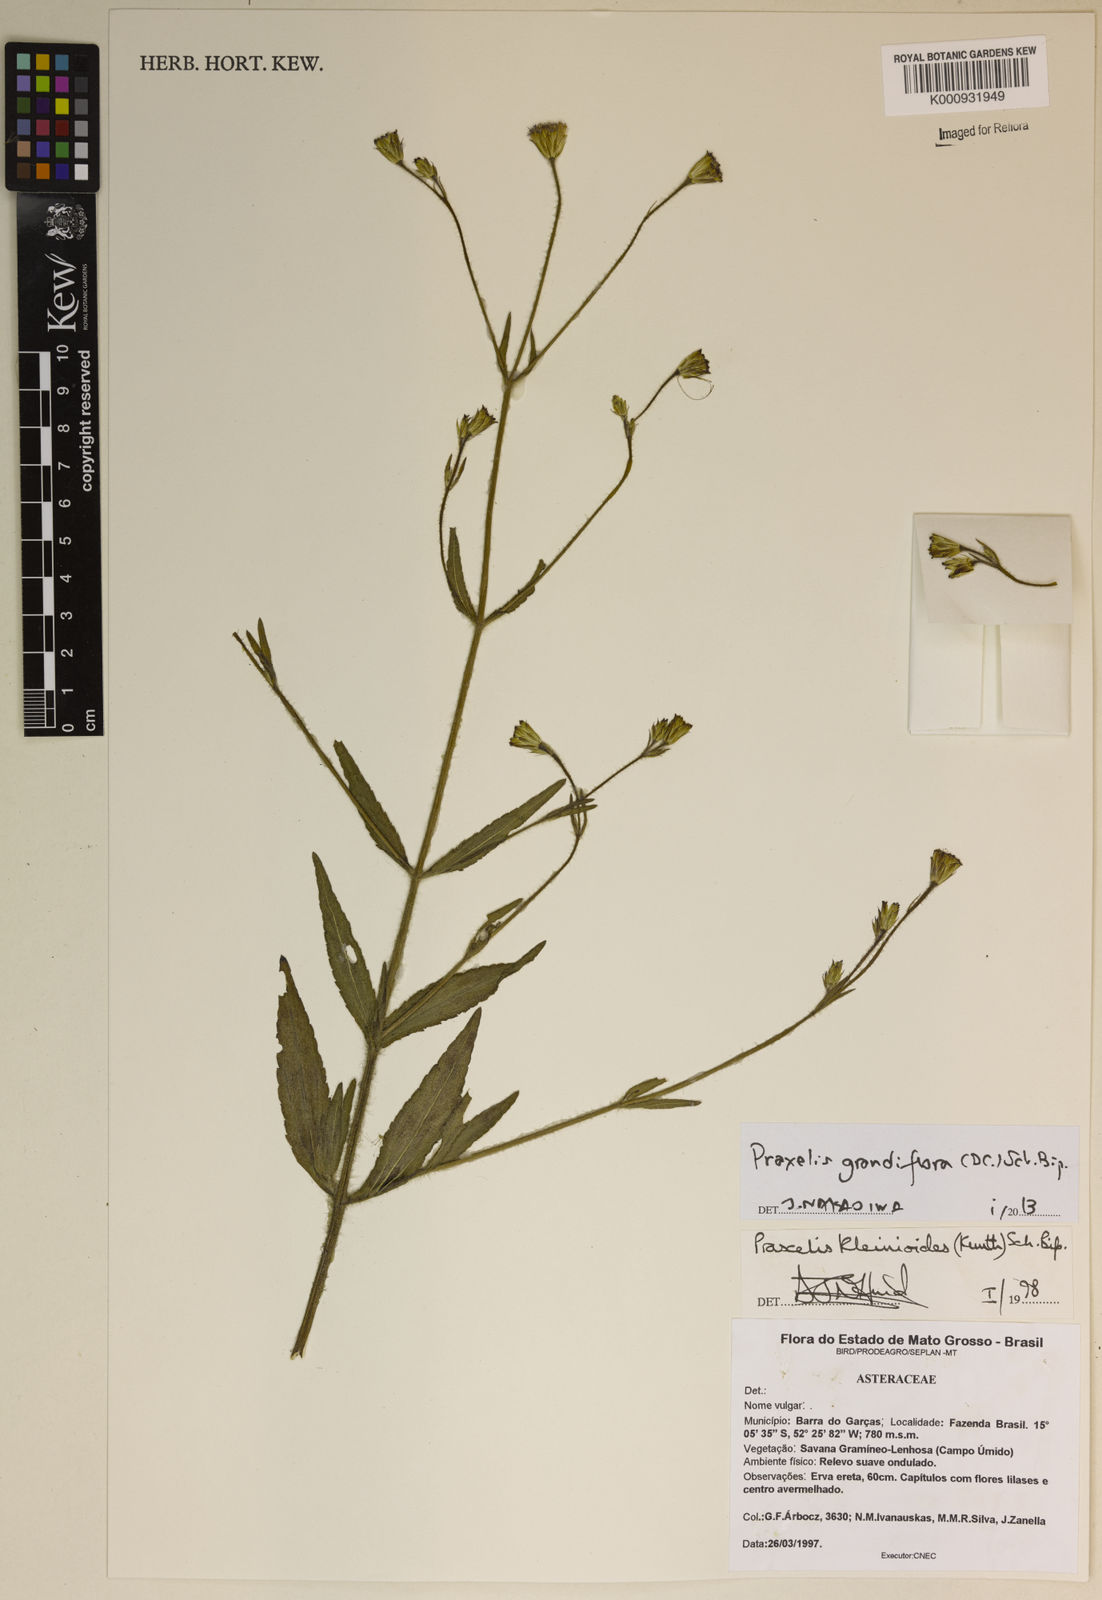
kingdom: Plantae
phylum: Tracheophyta
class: Magnoliopsida
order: Asterales
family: Asteraceae
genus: Praxelis
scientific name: Praxelis grandiflora
